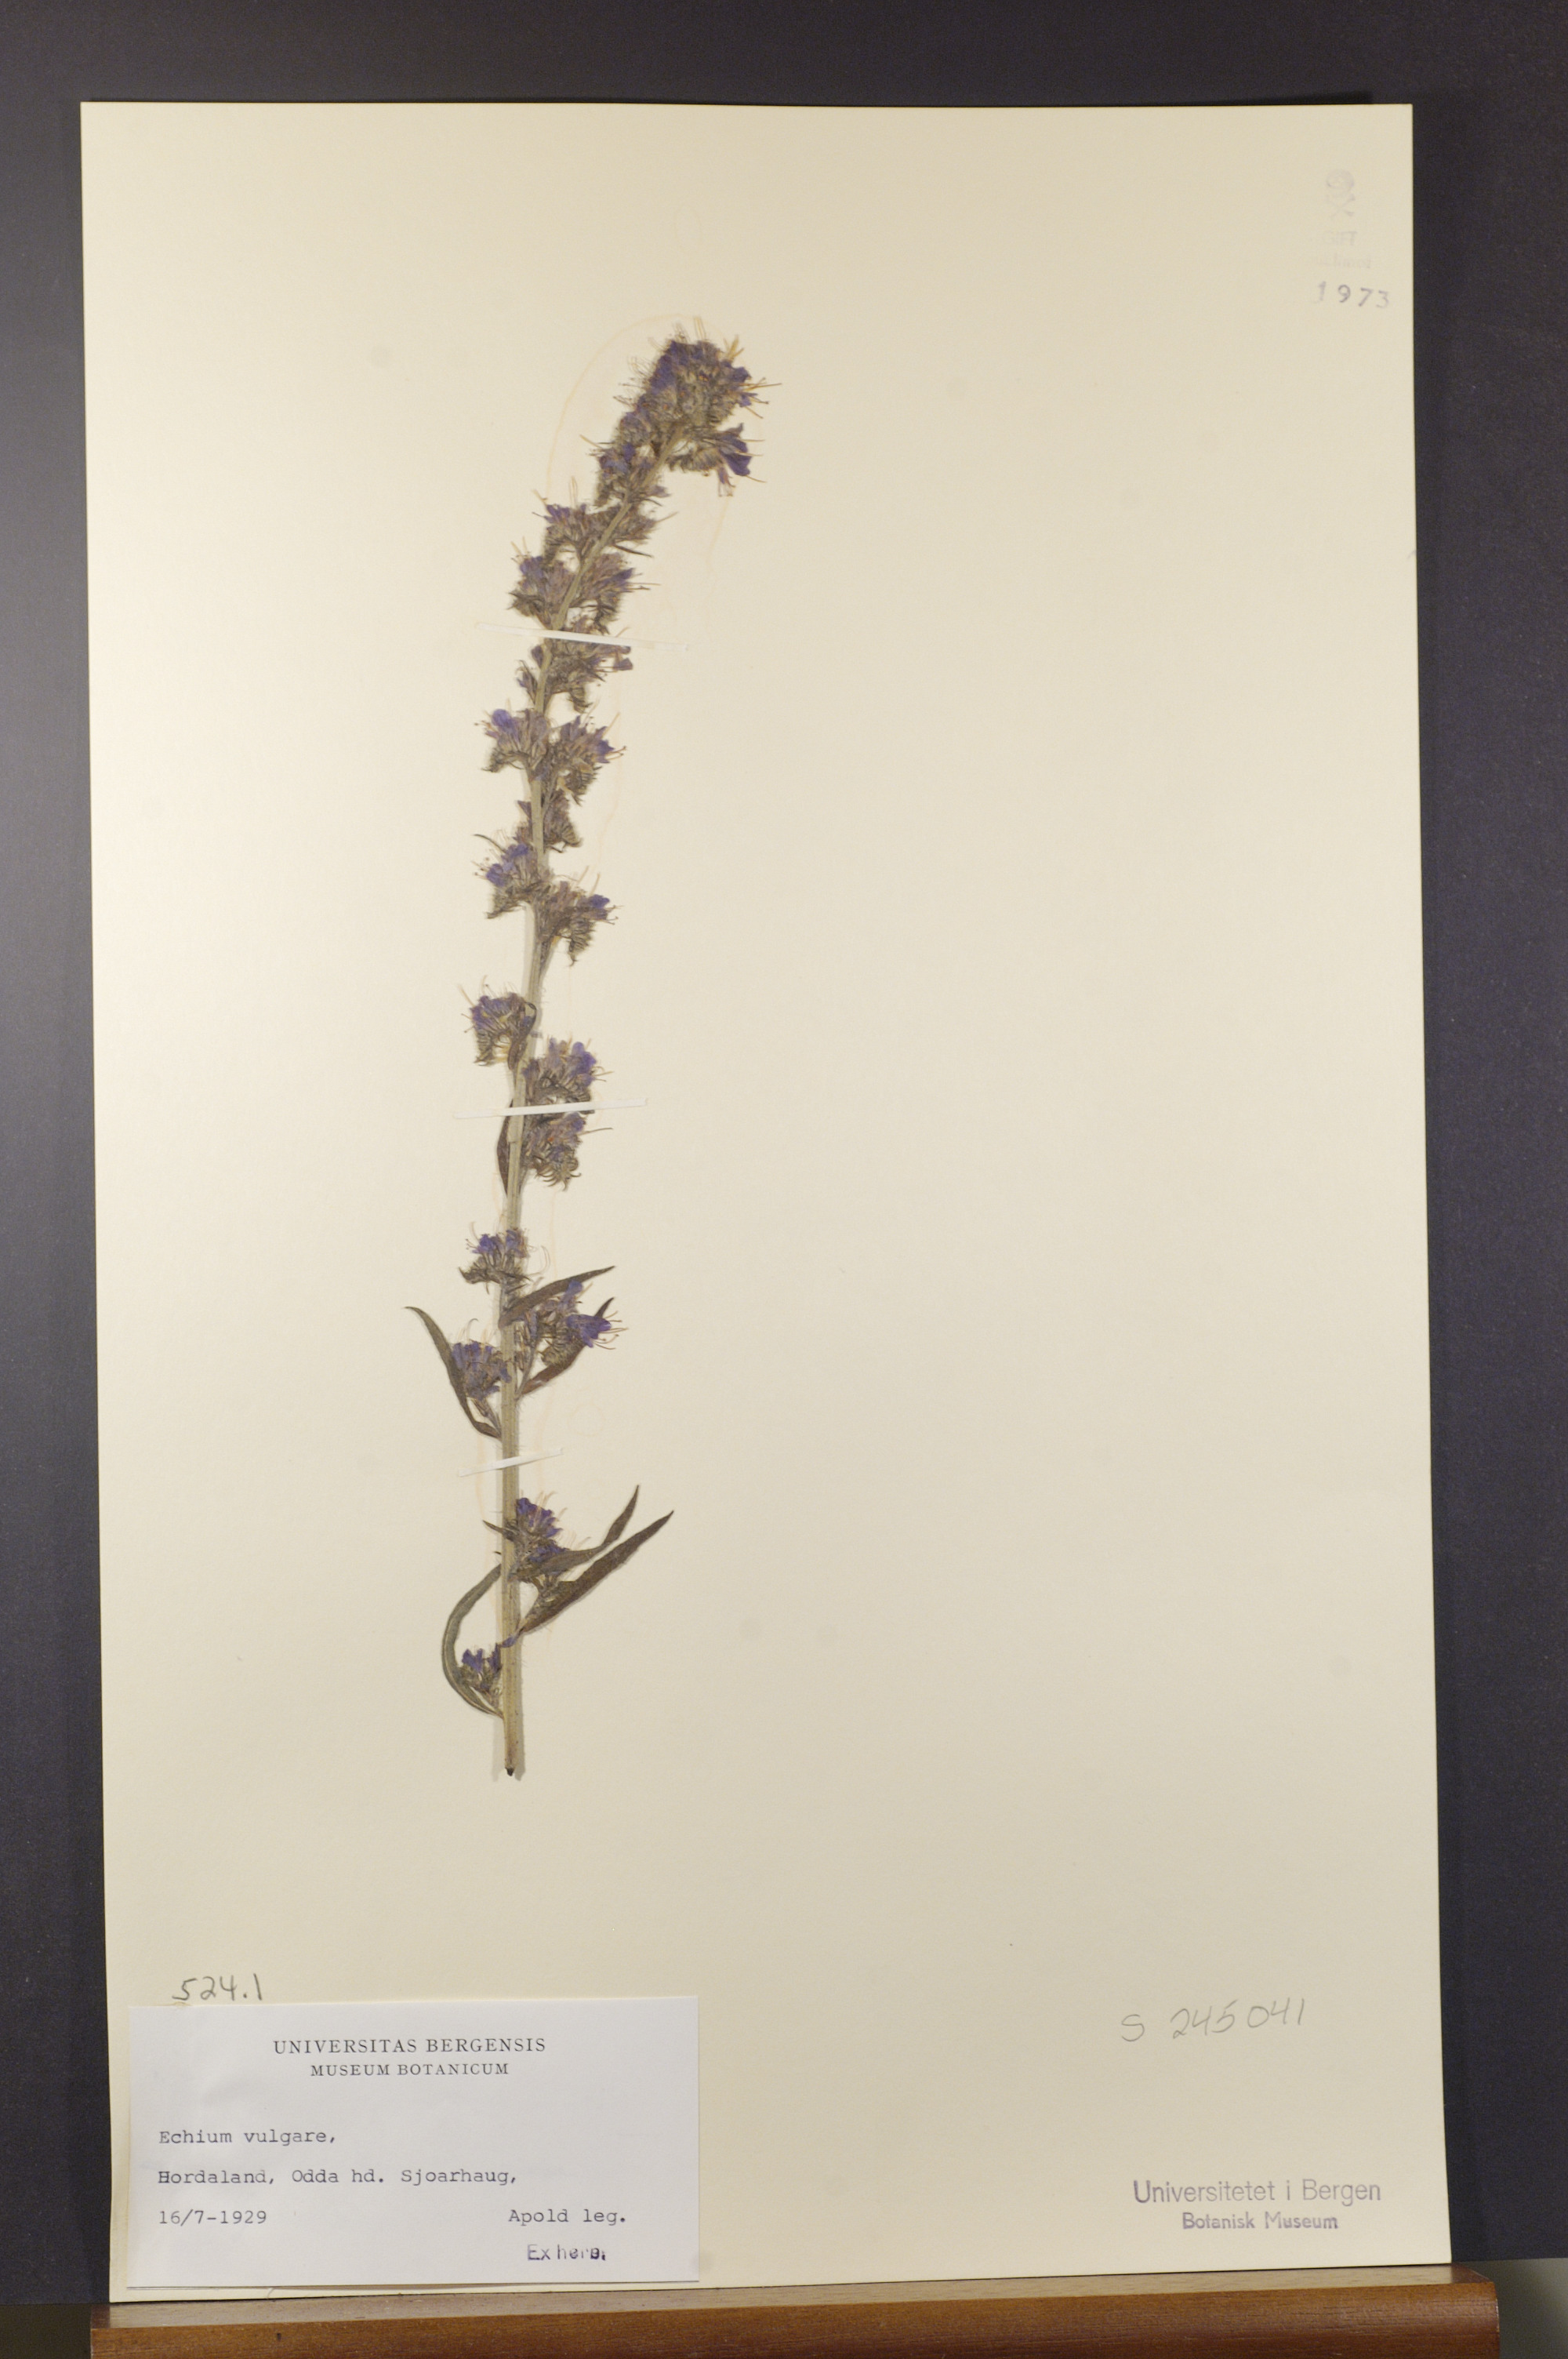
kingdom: Plantae
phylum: Tracheophyta
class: Magnoliopsida
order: Boraginales
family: Boraginaceae
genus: Echium
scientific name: Echium vulgare
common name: Common viper's bugloss
